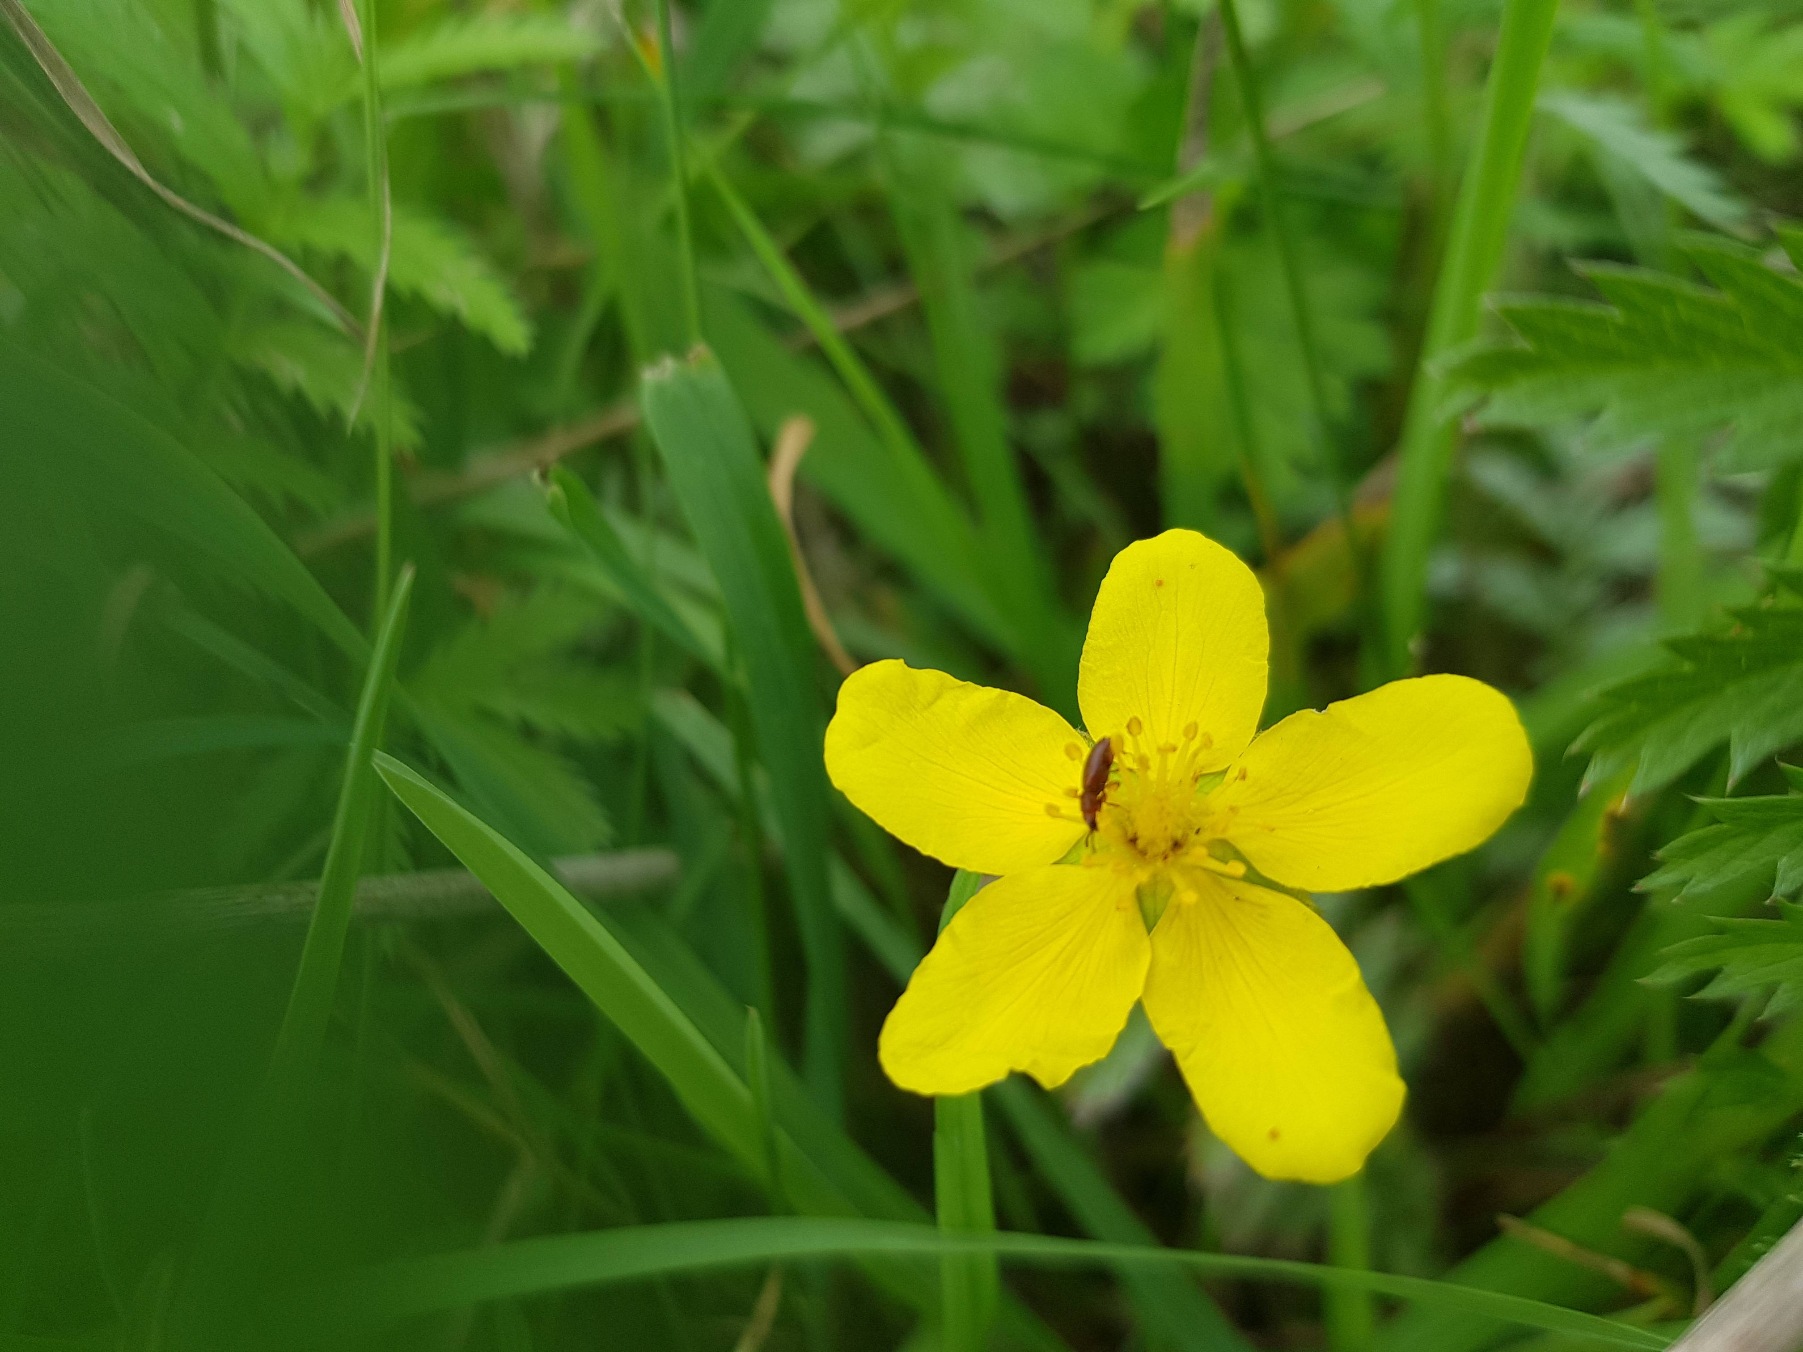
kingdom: Plantae
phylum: Tracheophyta
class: Magnoliopsida
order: Rosales
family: Rosaceae
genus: Argentina
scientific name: Argentina anserina
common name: Gåsepotentil
